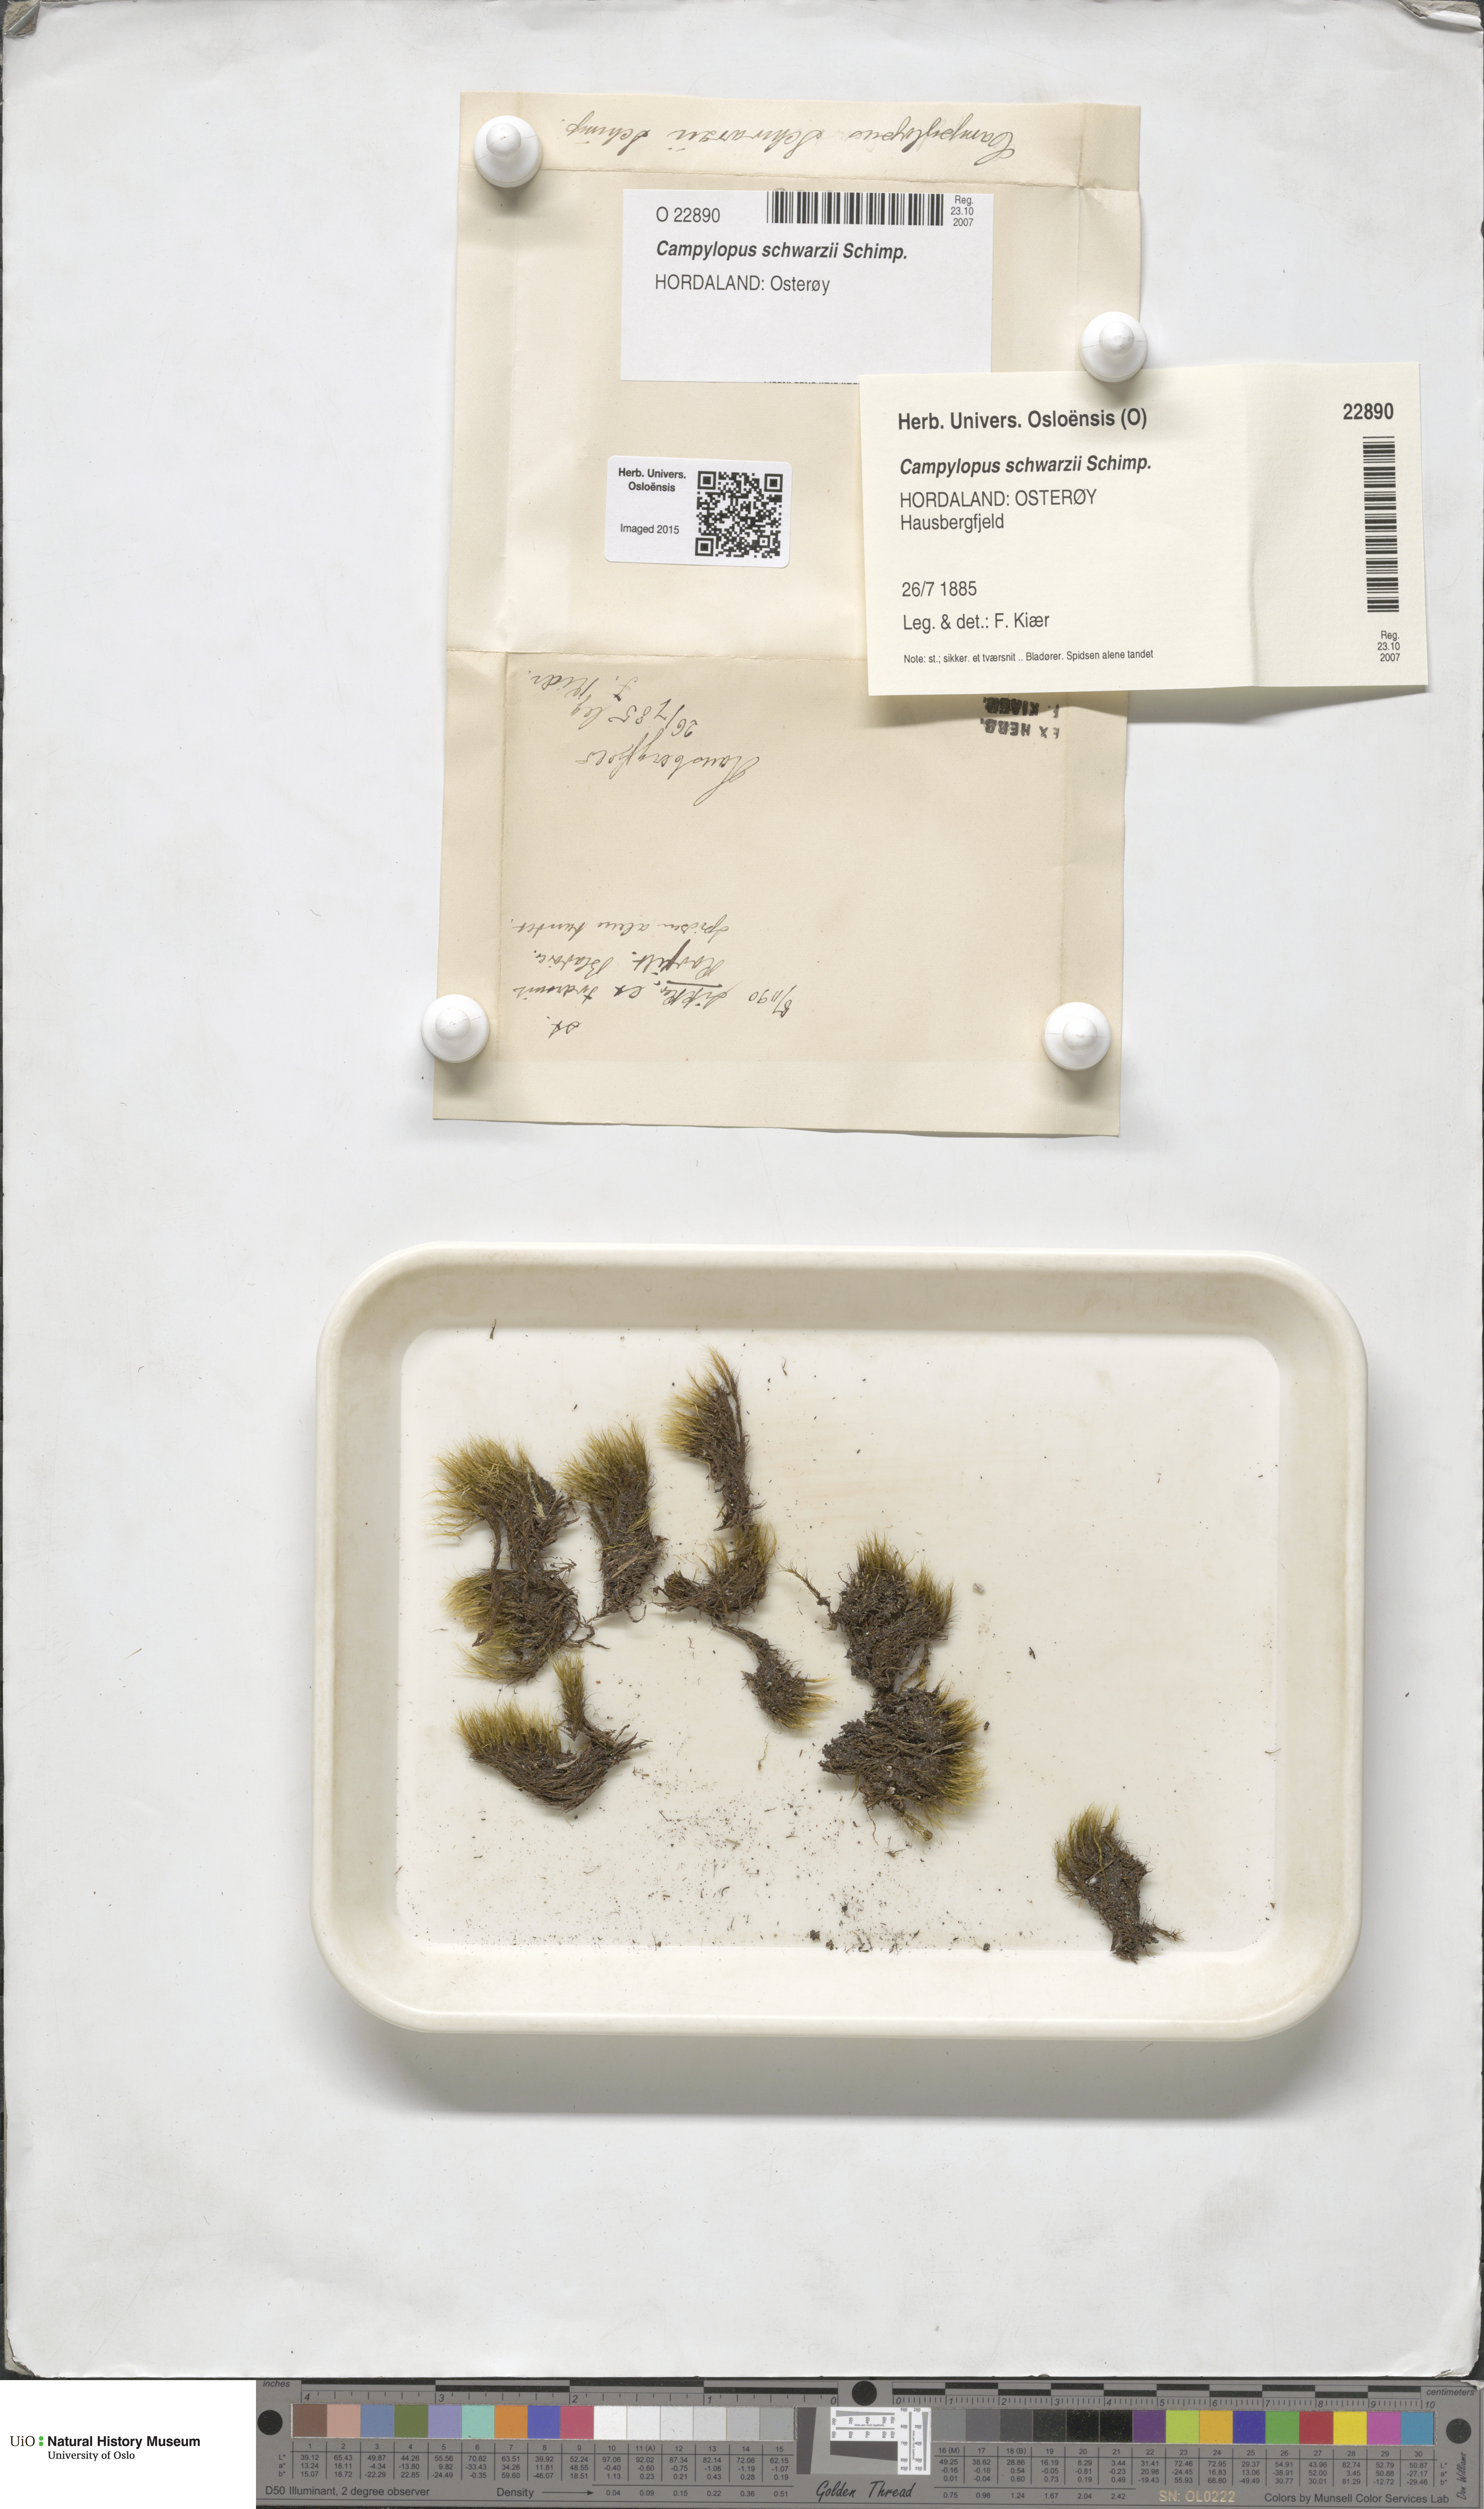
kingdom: Plantae
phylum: Bryophyta
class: Bryopsida
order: Dicranales
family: Leucobryaceae
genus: Campylopus
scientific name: Campylopus gracilis
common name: Schwarz's swan-neck moss
